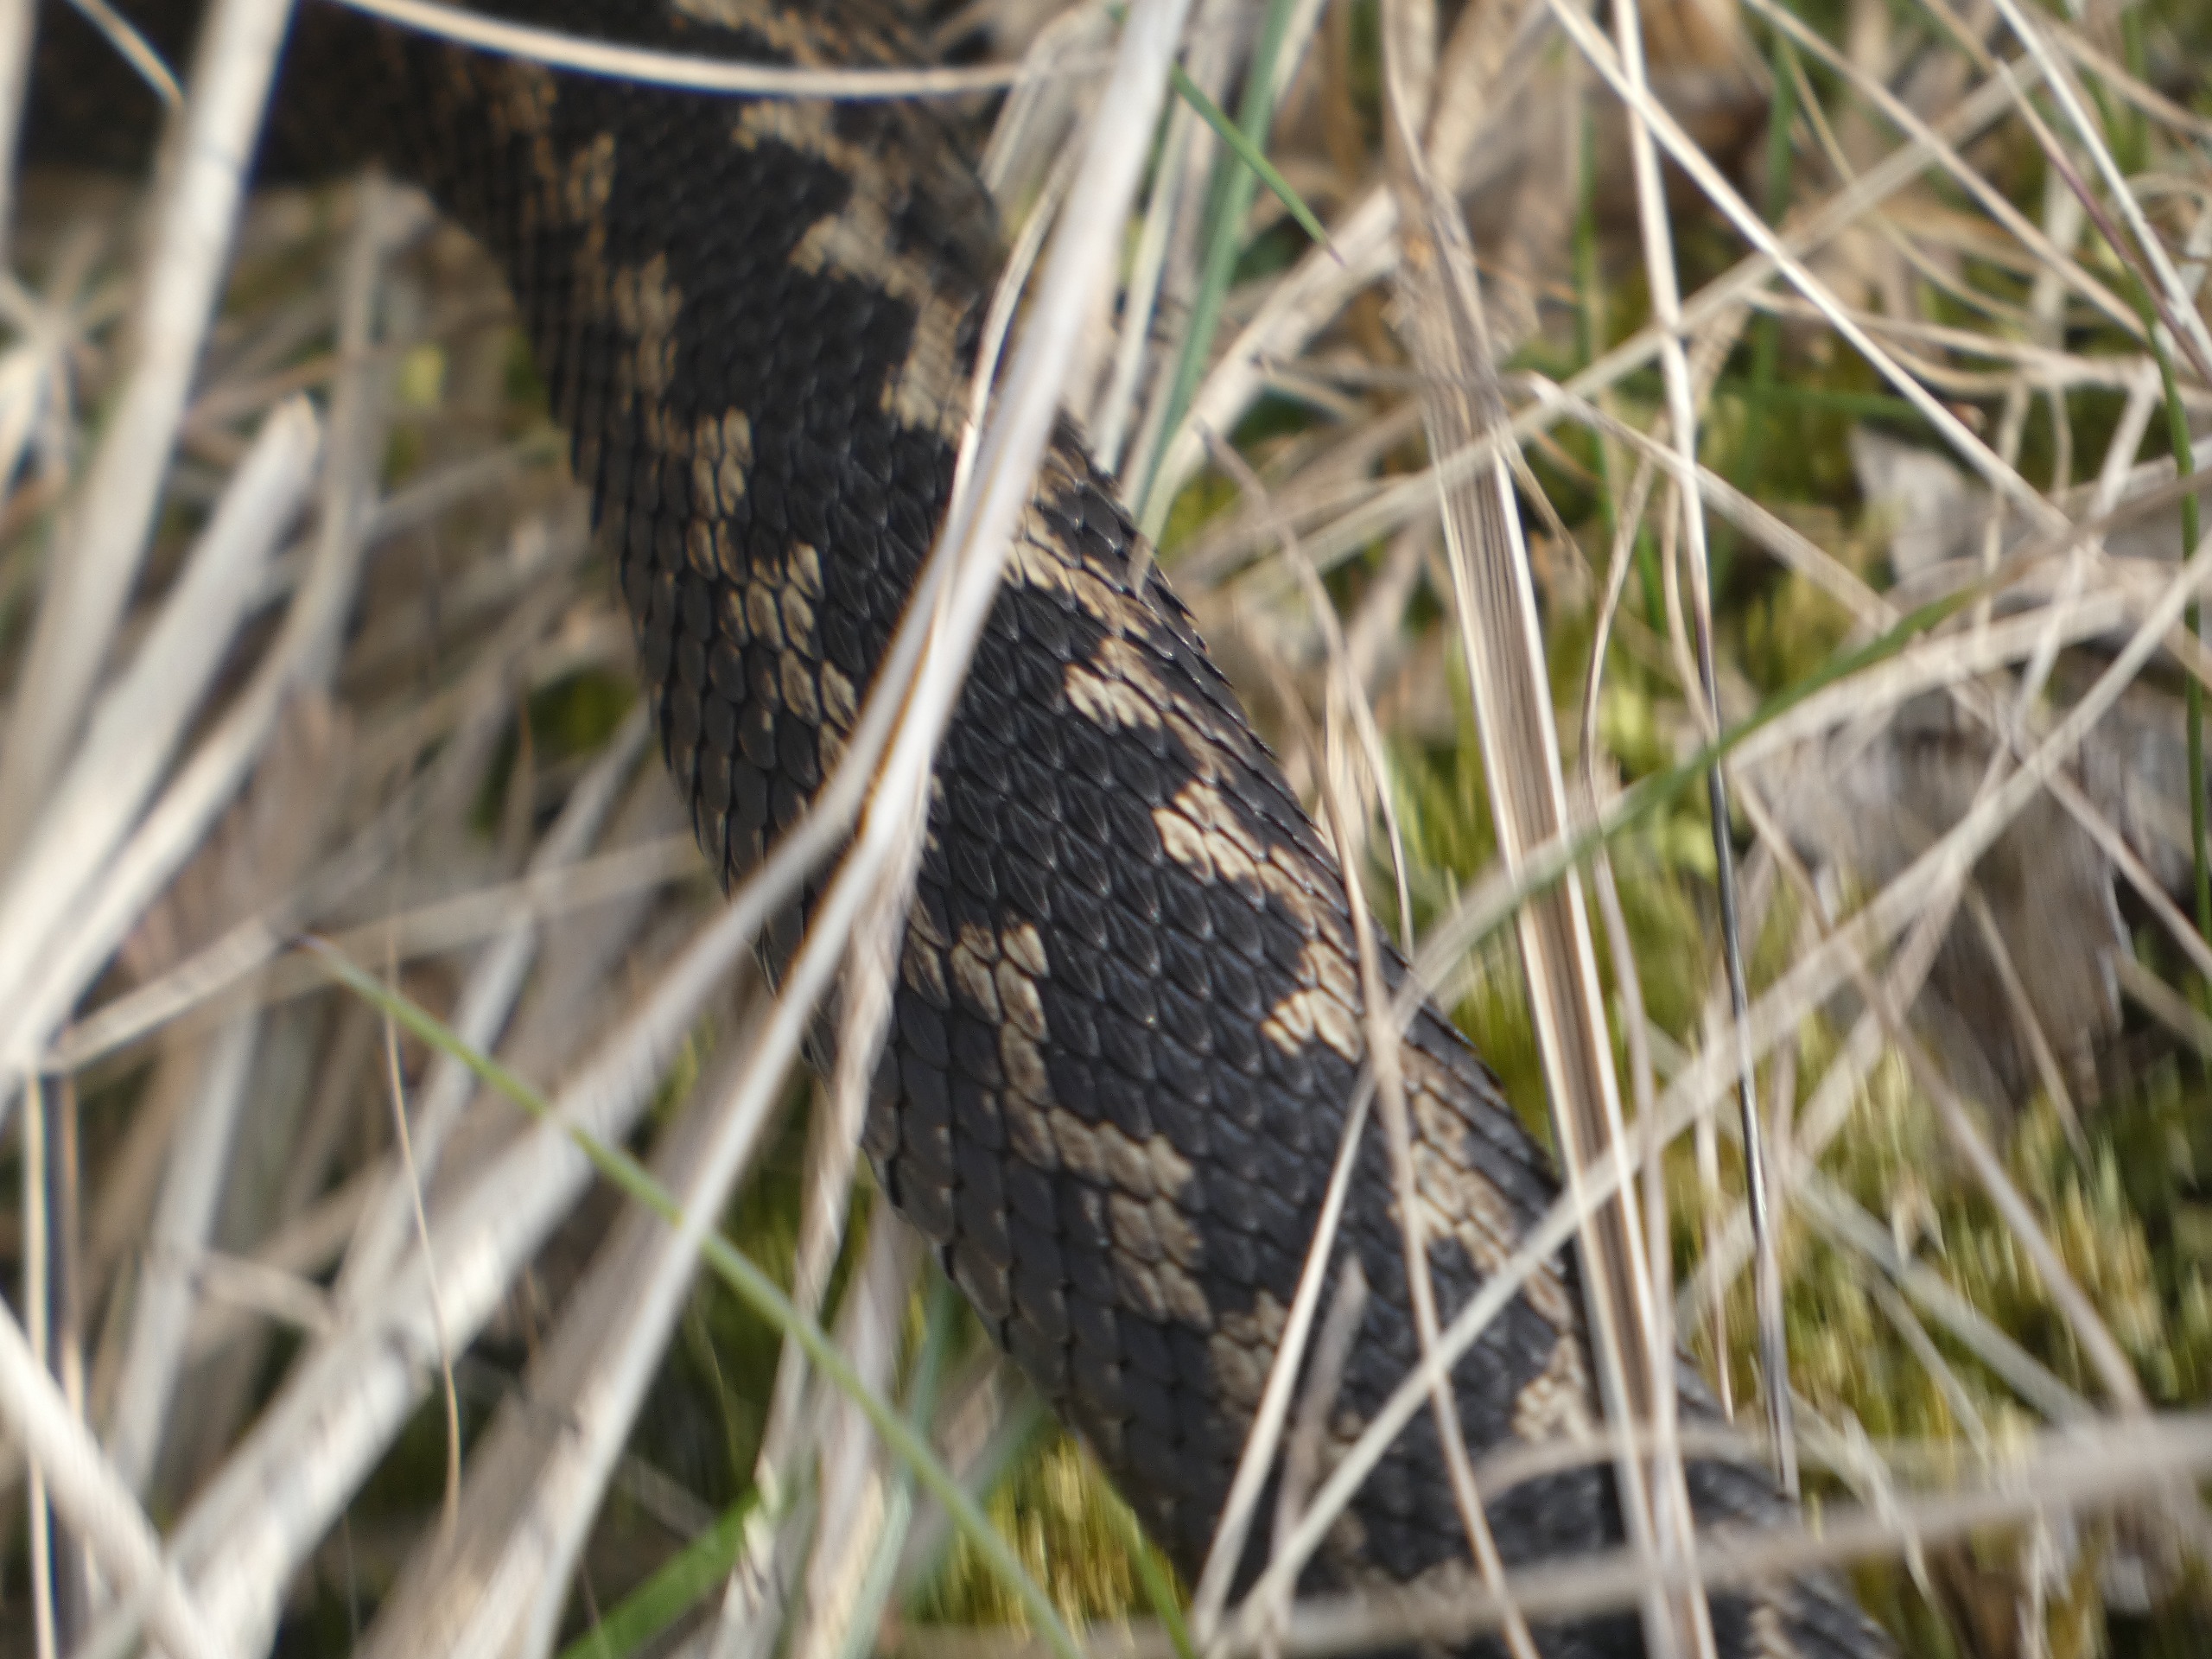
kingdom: Animalia
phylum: Chordata
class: Squamata
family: Viperidae
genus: Vipera
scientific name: Vipera berus
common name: Hugorm
